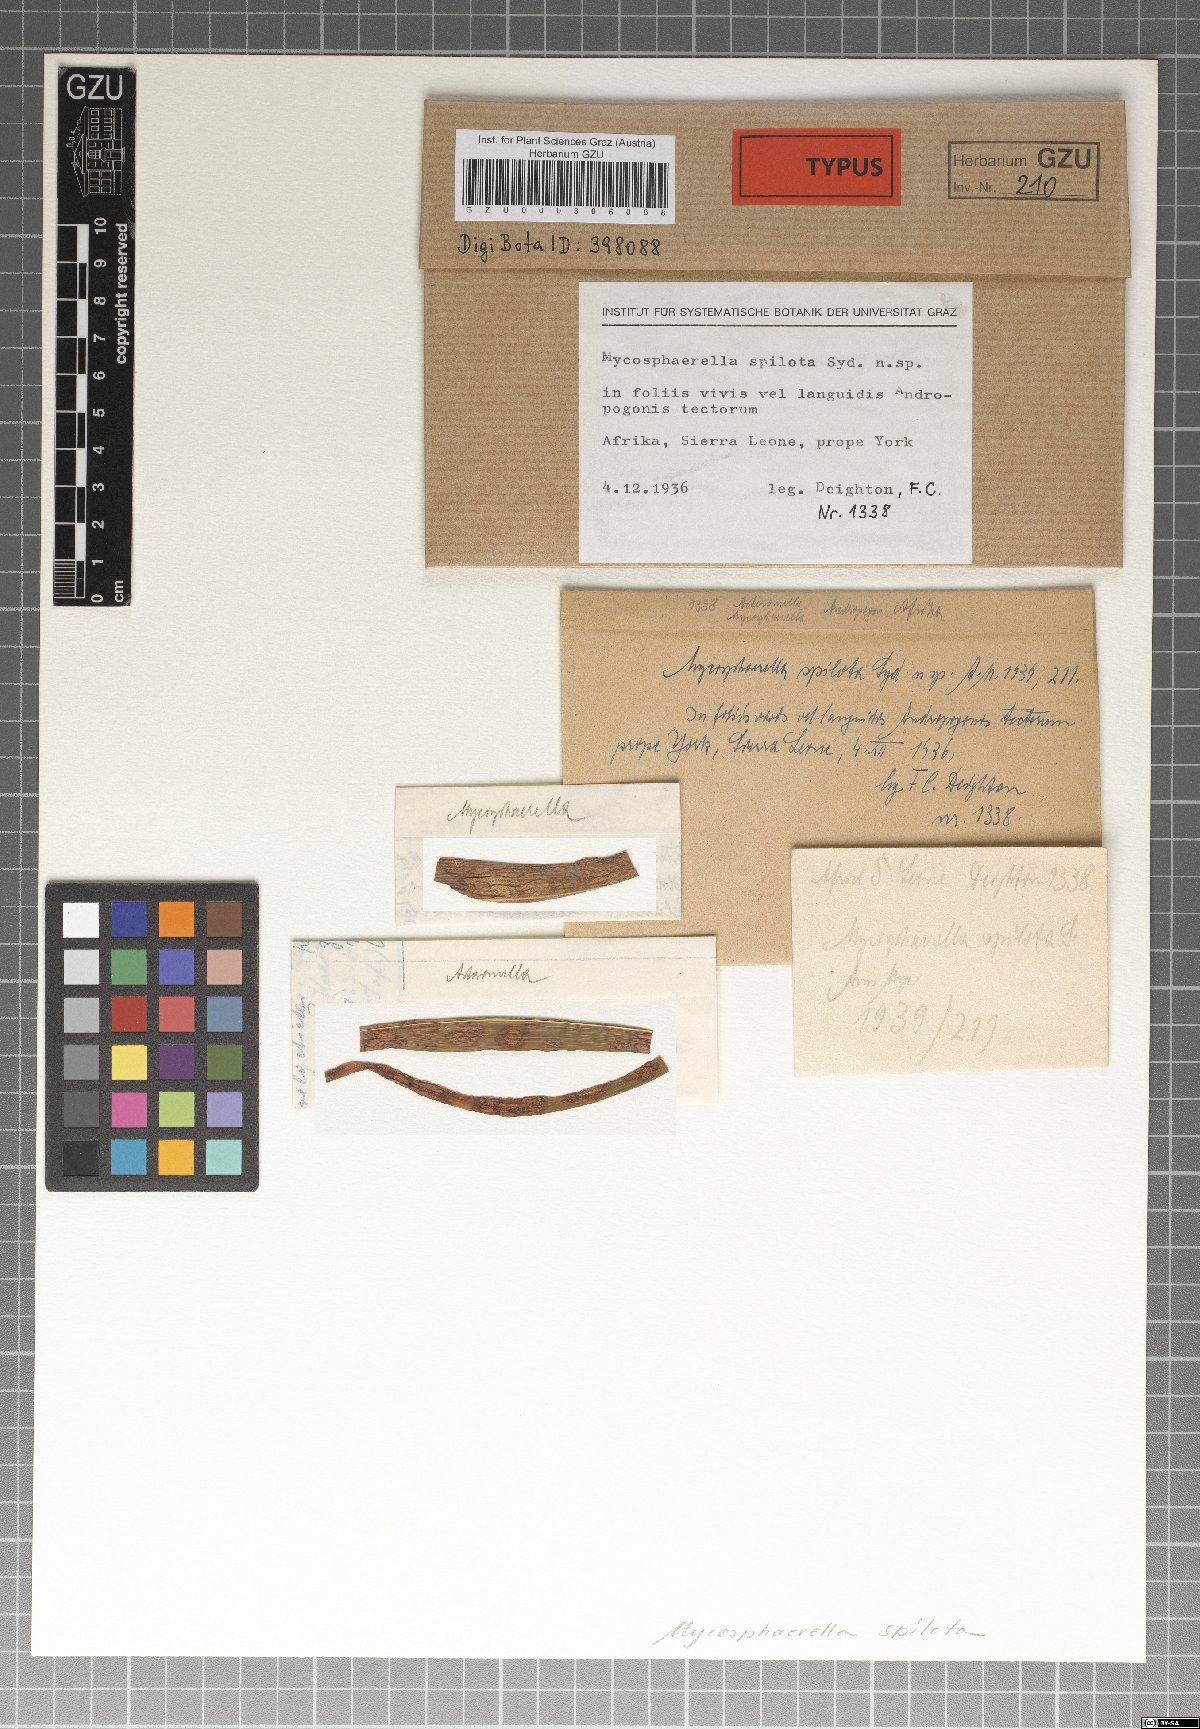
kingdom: Fungi
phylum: Ascomycota
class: Dothideomycetes
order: Mycosphaerellales
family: Mycosphaerellaceae
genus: Davidiella
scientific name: Davidiella spilota
